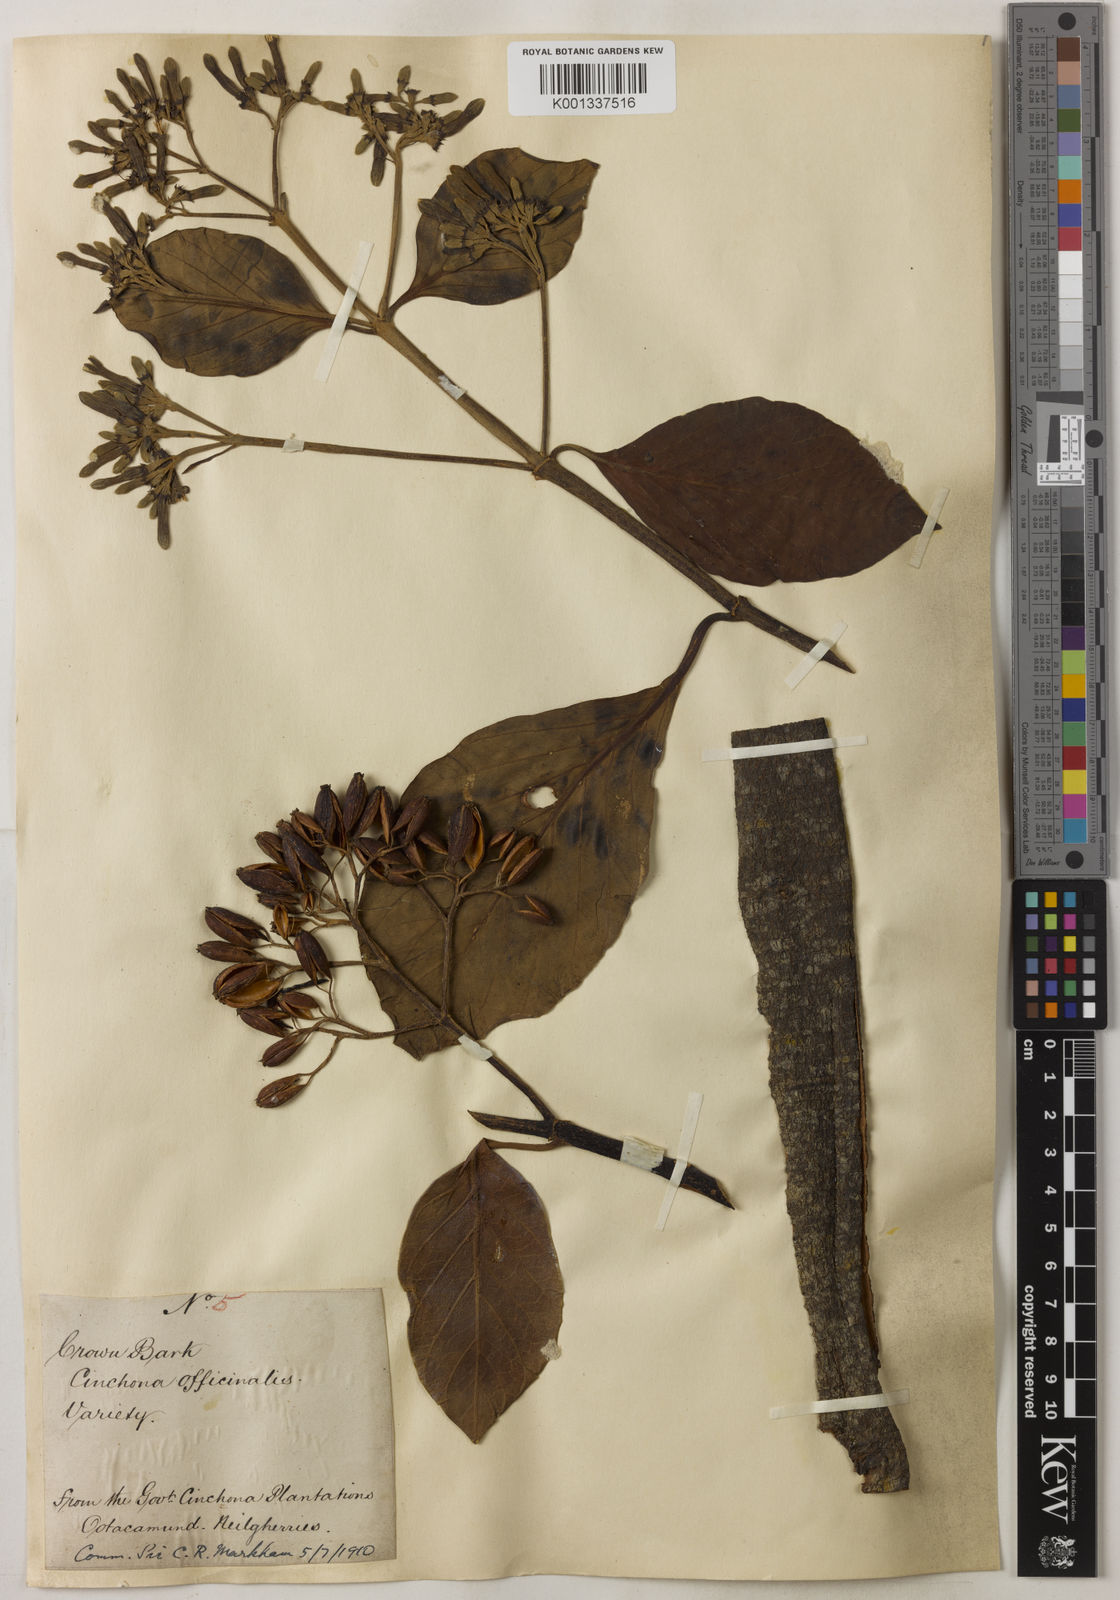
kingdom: Plantae
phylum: Tracheophyta
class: Magnoliopsida
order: Gentianales
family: Rubiaceae
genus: Cinchona
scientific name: Cinchona officinalis
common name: Lojabark
